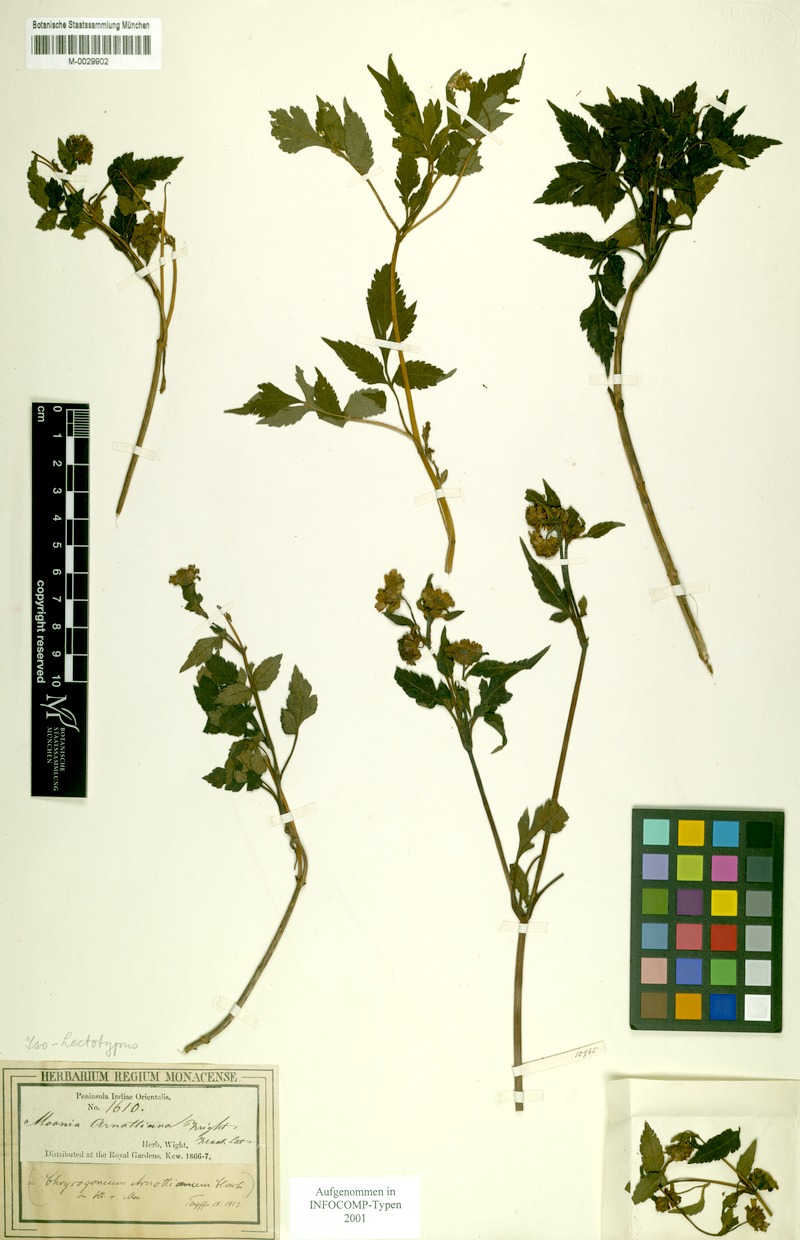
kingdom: Plantae
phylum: Tracheophyta
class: Magnoliopsida
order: Asterales
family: Asteraceae
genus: Moonia
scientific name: Moonia arnottiana
